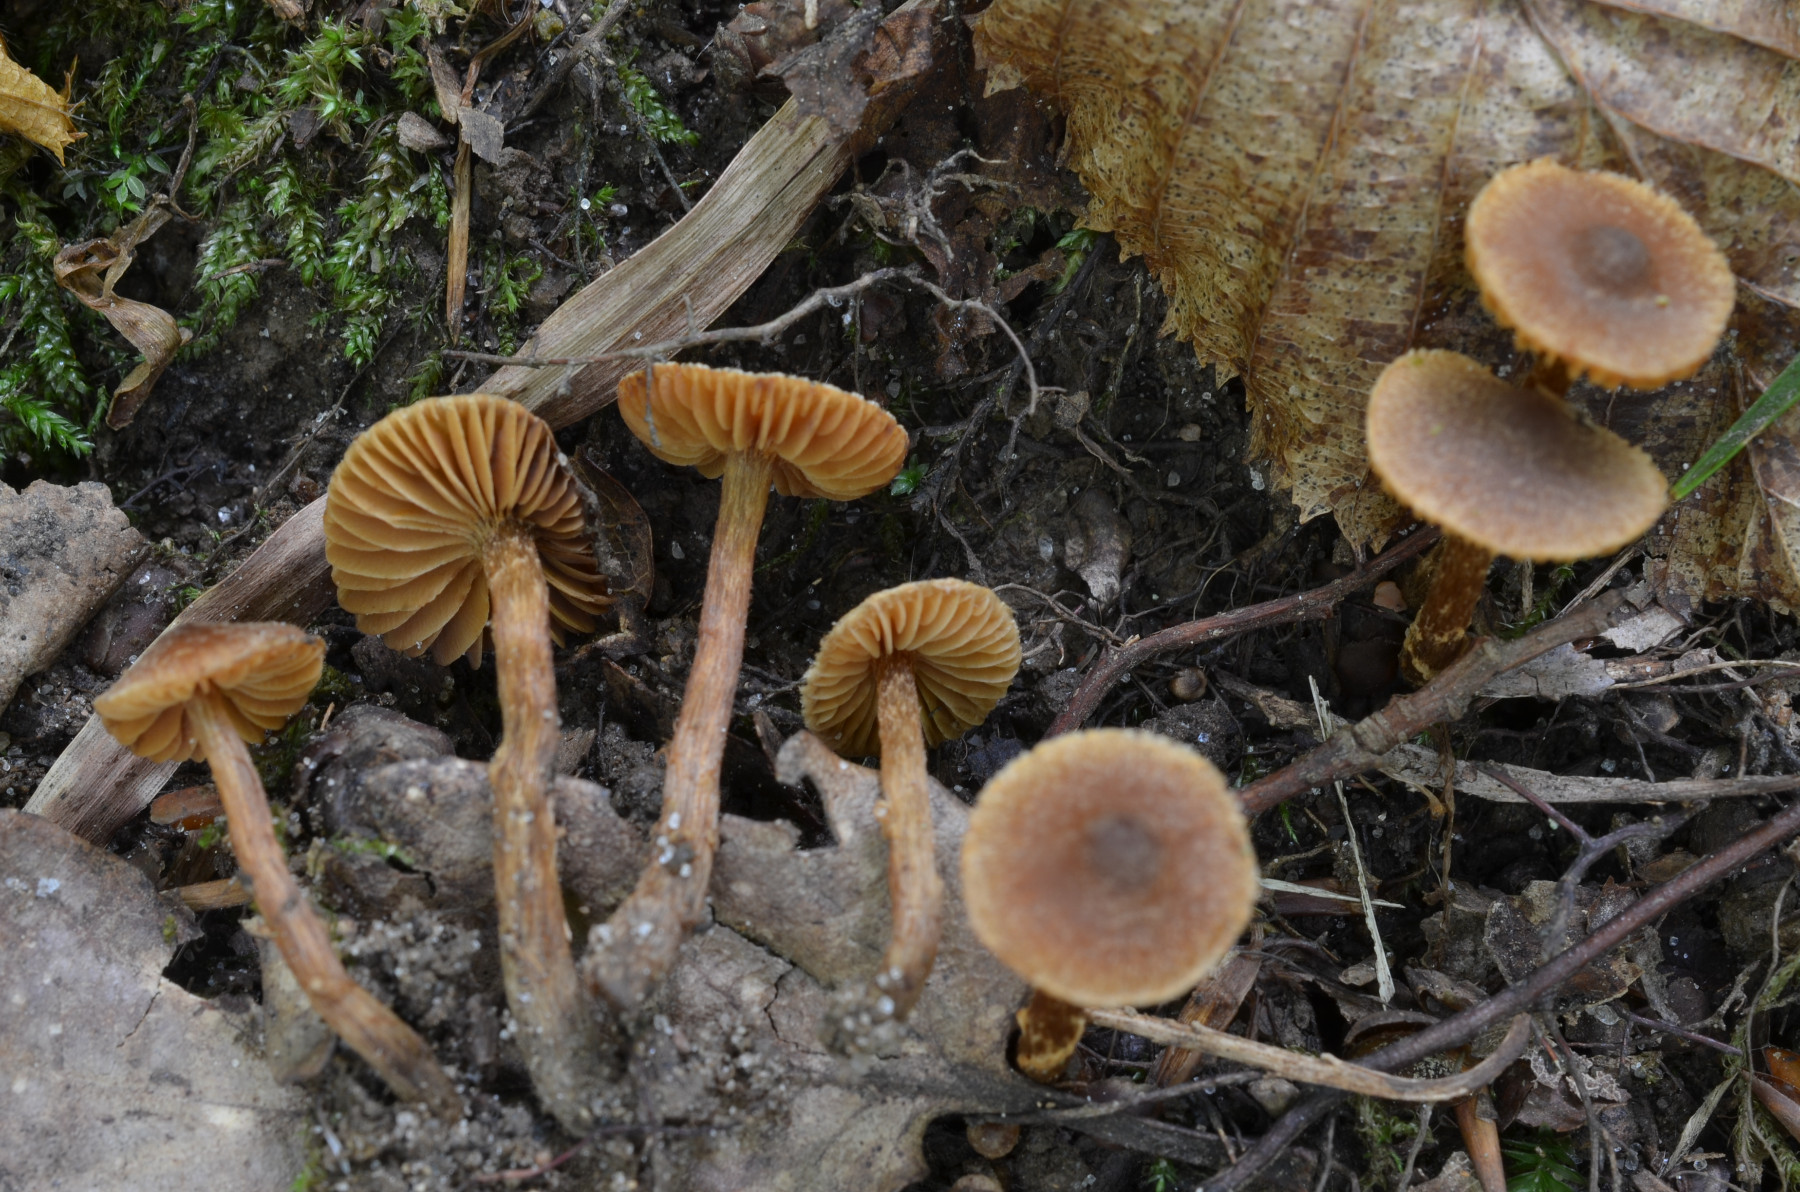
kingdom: Fungi
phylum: Basidiomycota
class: Agaricomycetes
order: Agaricales
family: Cortinariaceae
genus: Cortinarius
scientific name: Cortinarius castaneopallidus
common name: bronzetrævlet slørhat
